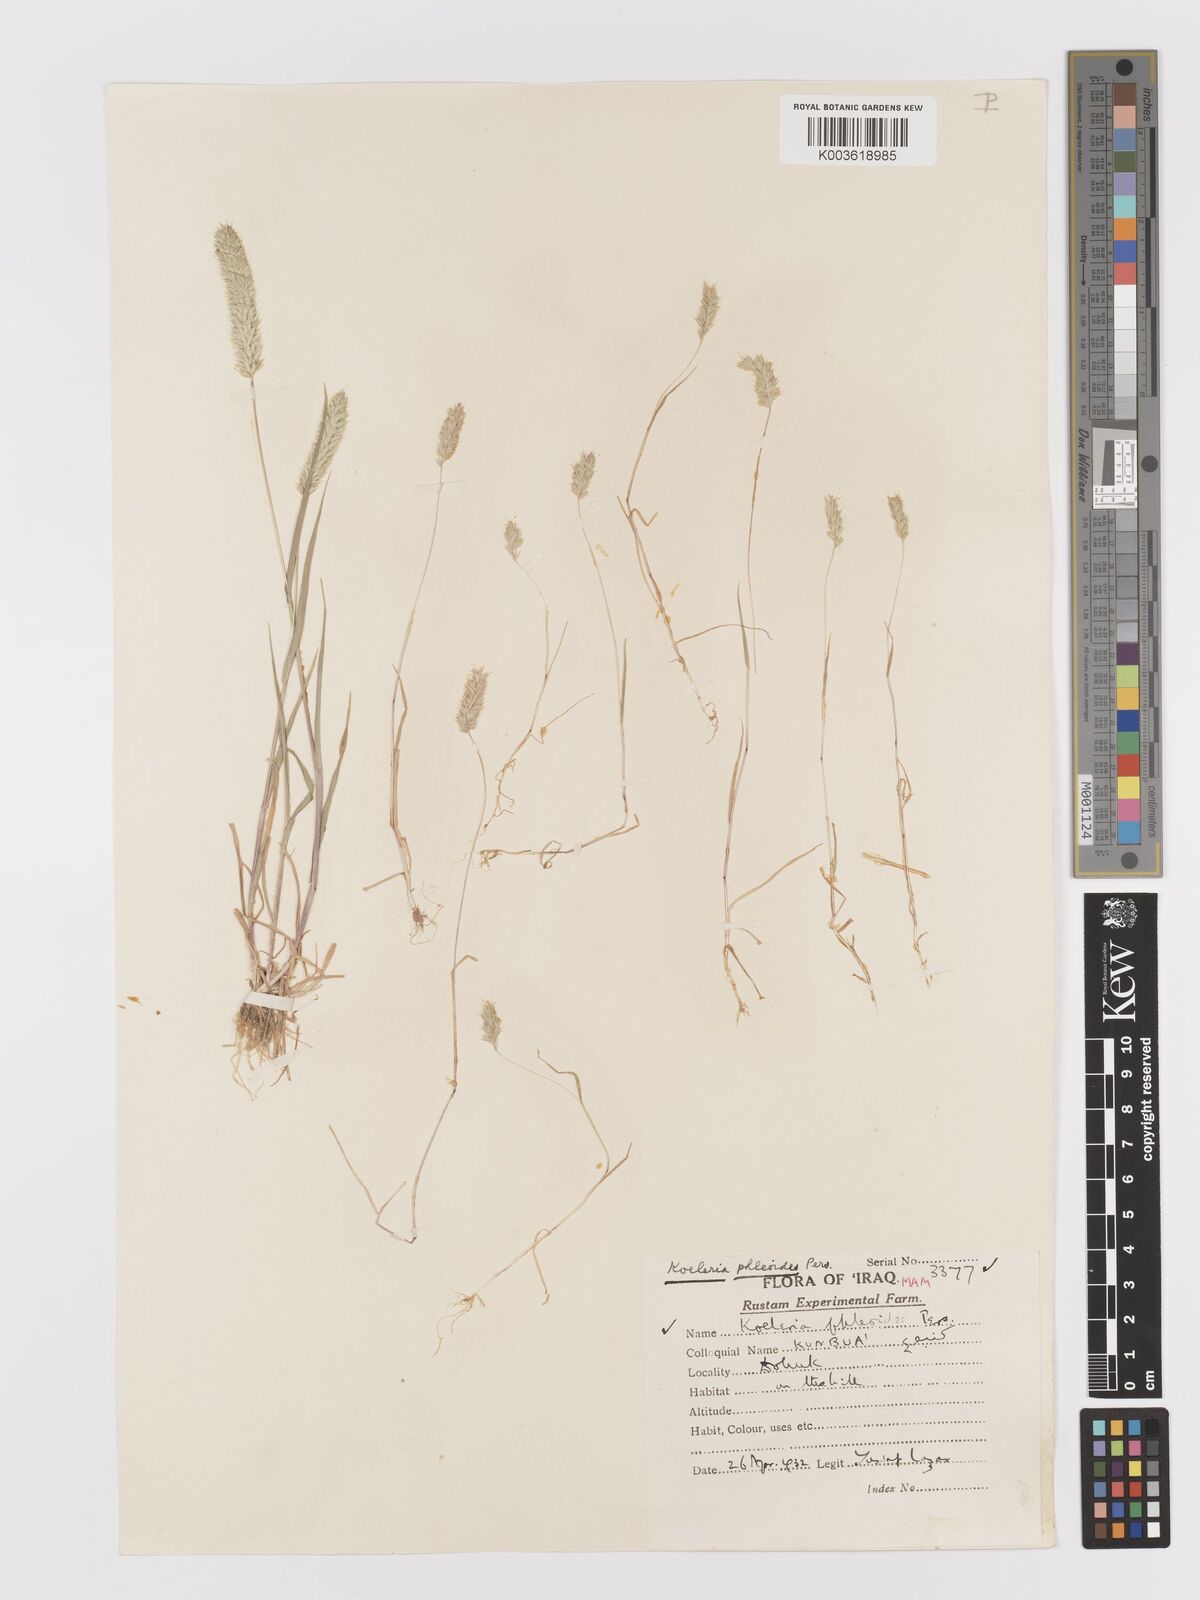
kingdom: Plantae
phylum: Tracheophyta
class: Liliopsida
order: Poales
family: Poaceae
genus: Rostraria
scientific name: Rostraria cristata
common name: Mediterranean hair-grass
